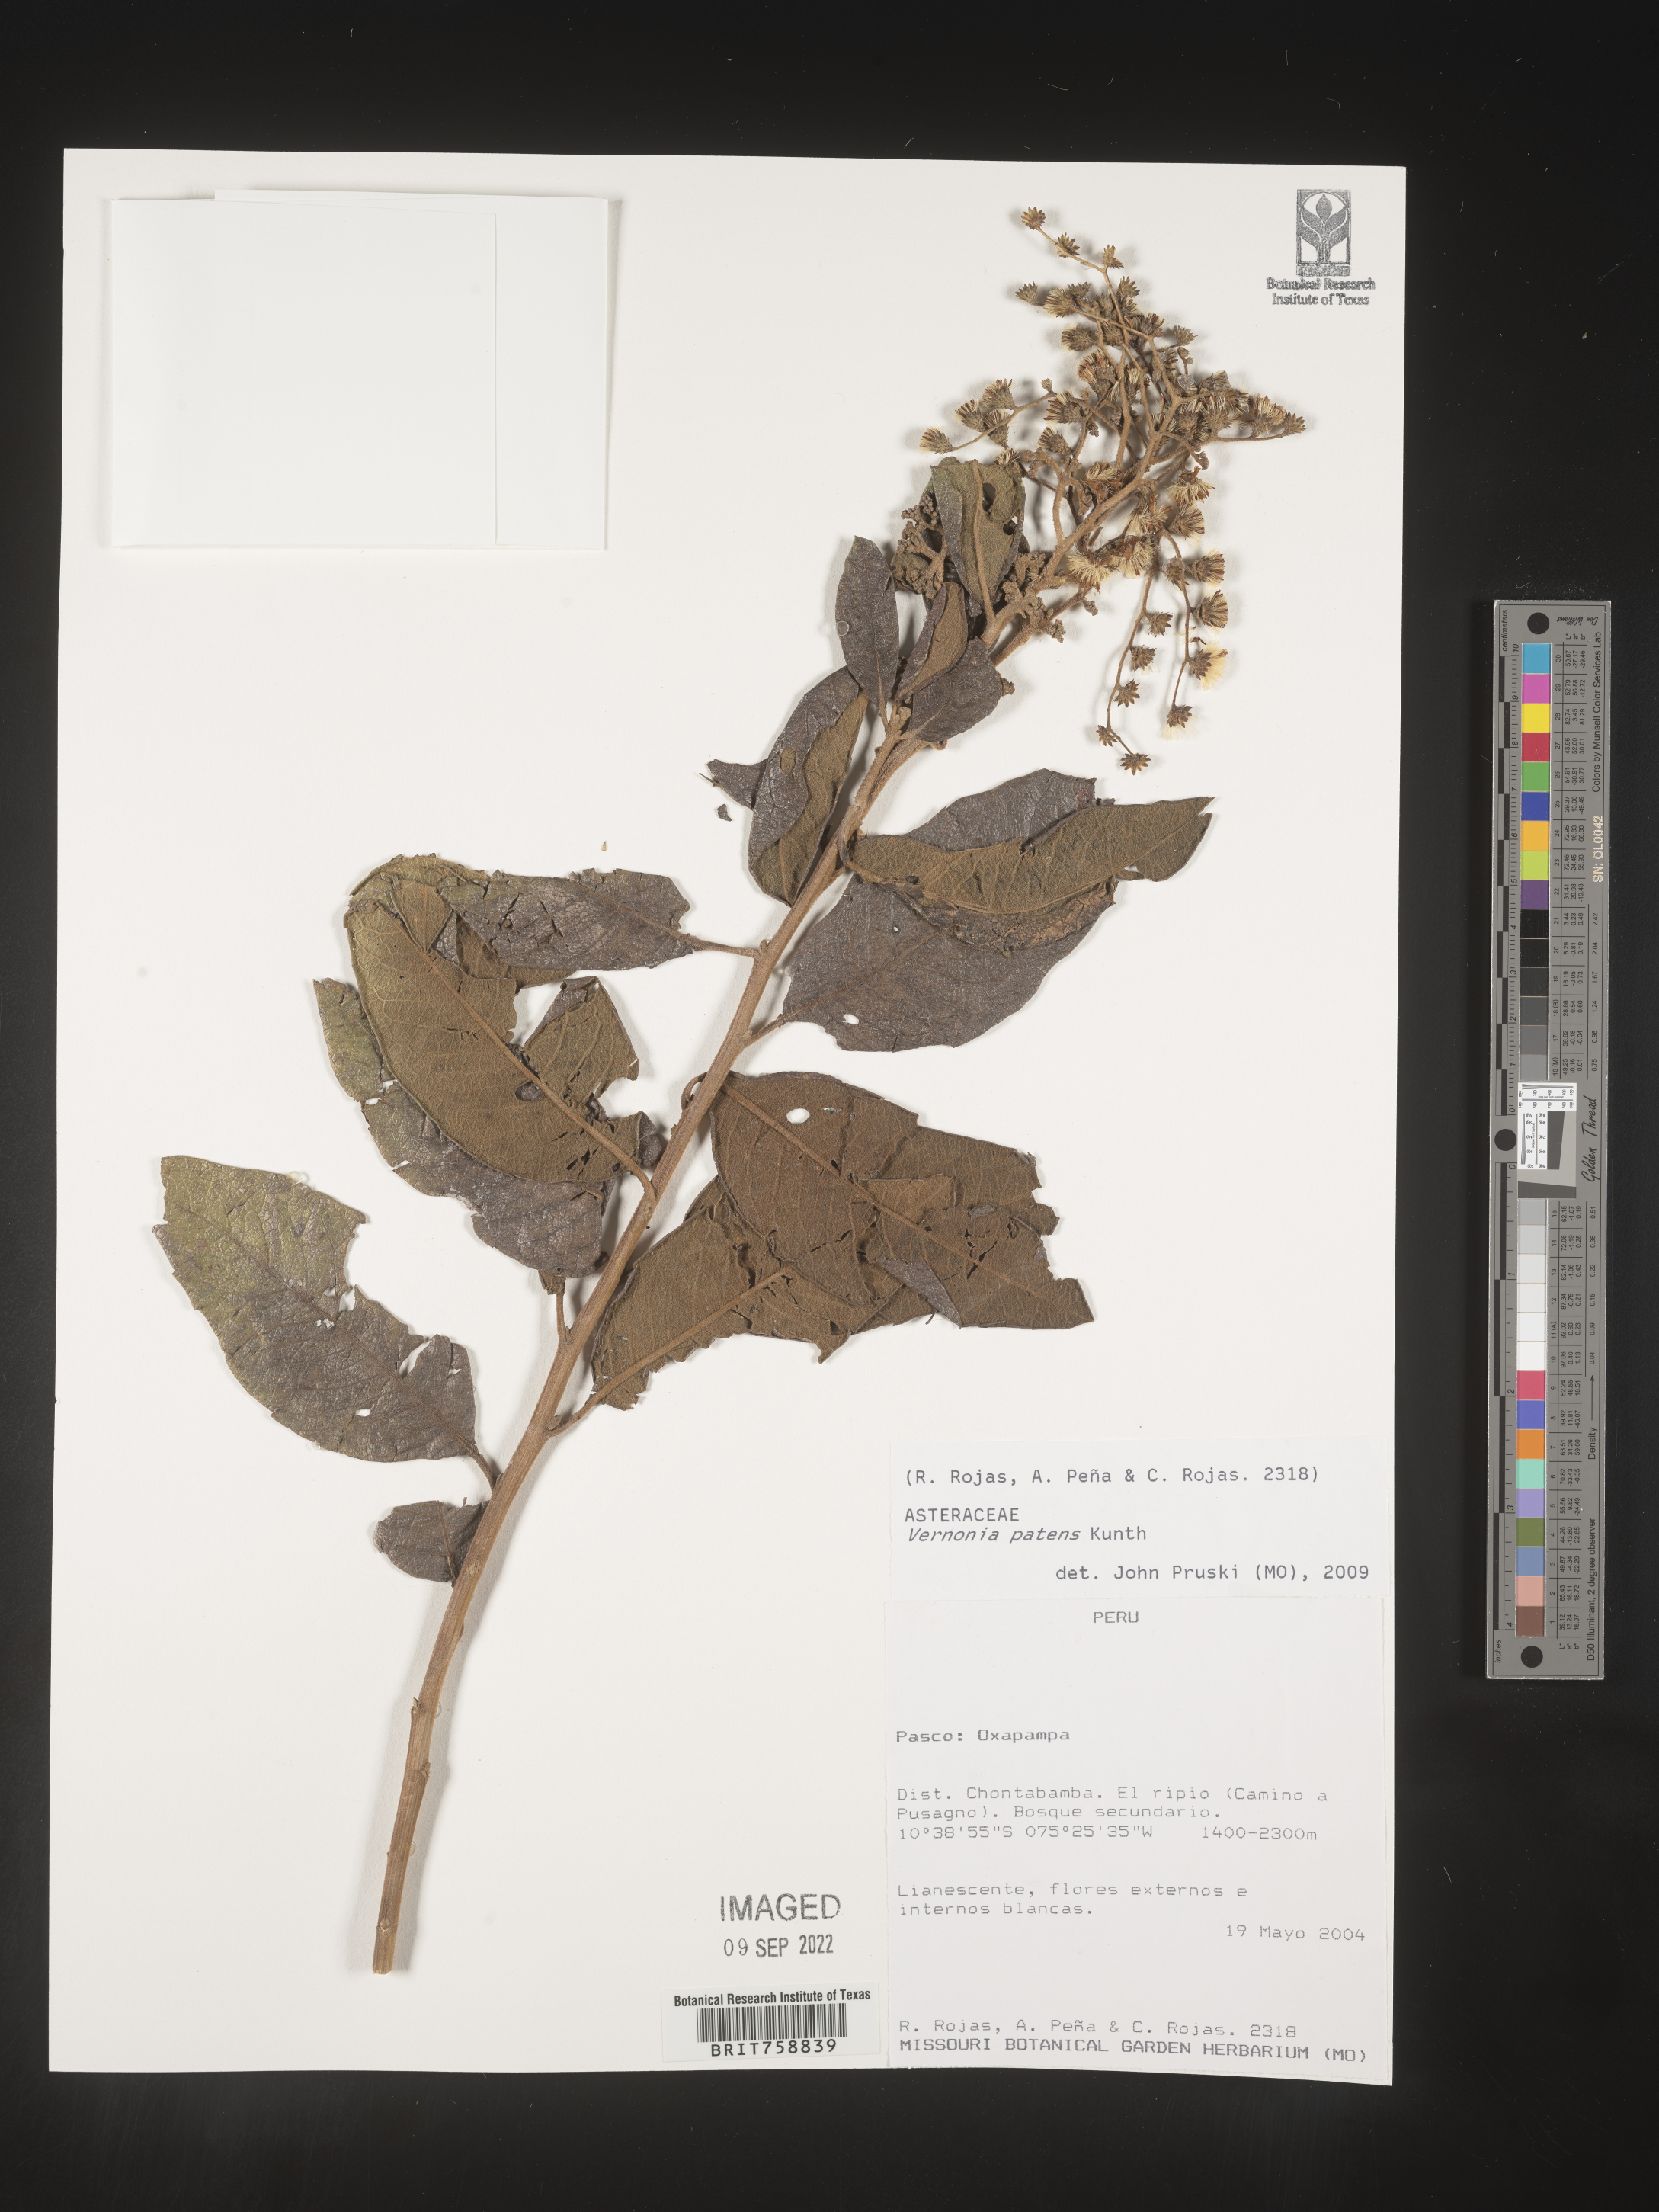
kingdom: Plantae
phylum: Tracheophyta
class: Magnoliopsida
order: Asterales
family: Asteraceae
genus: Vernonia
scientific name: Vernonia
